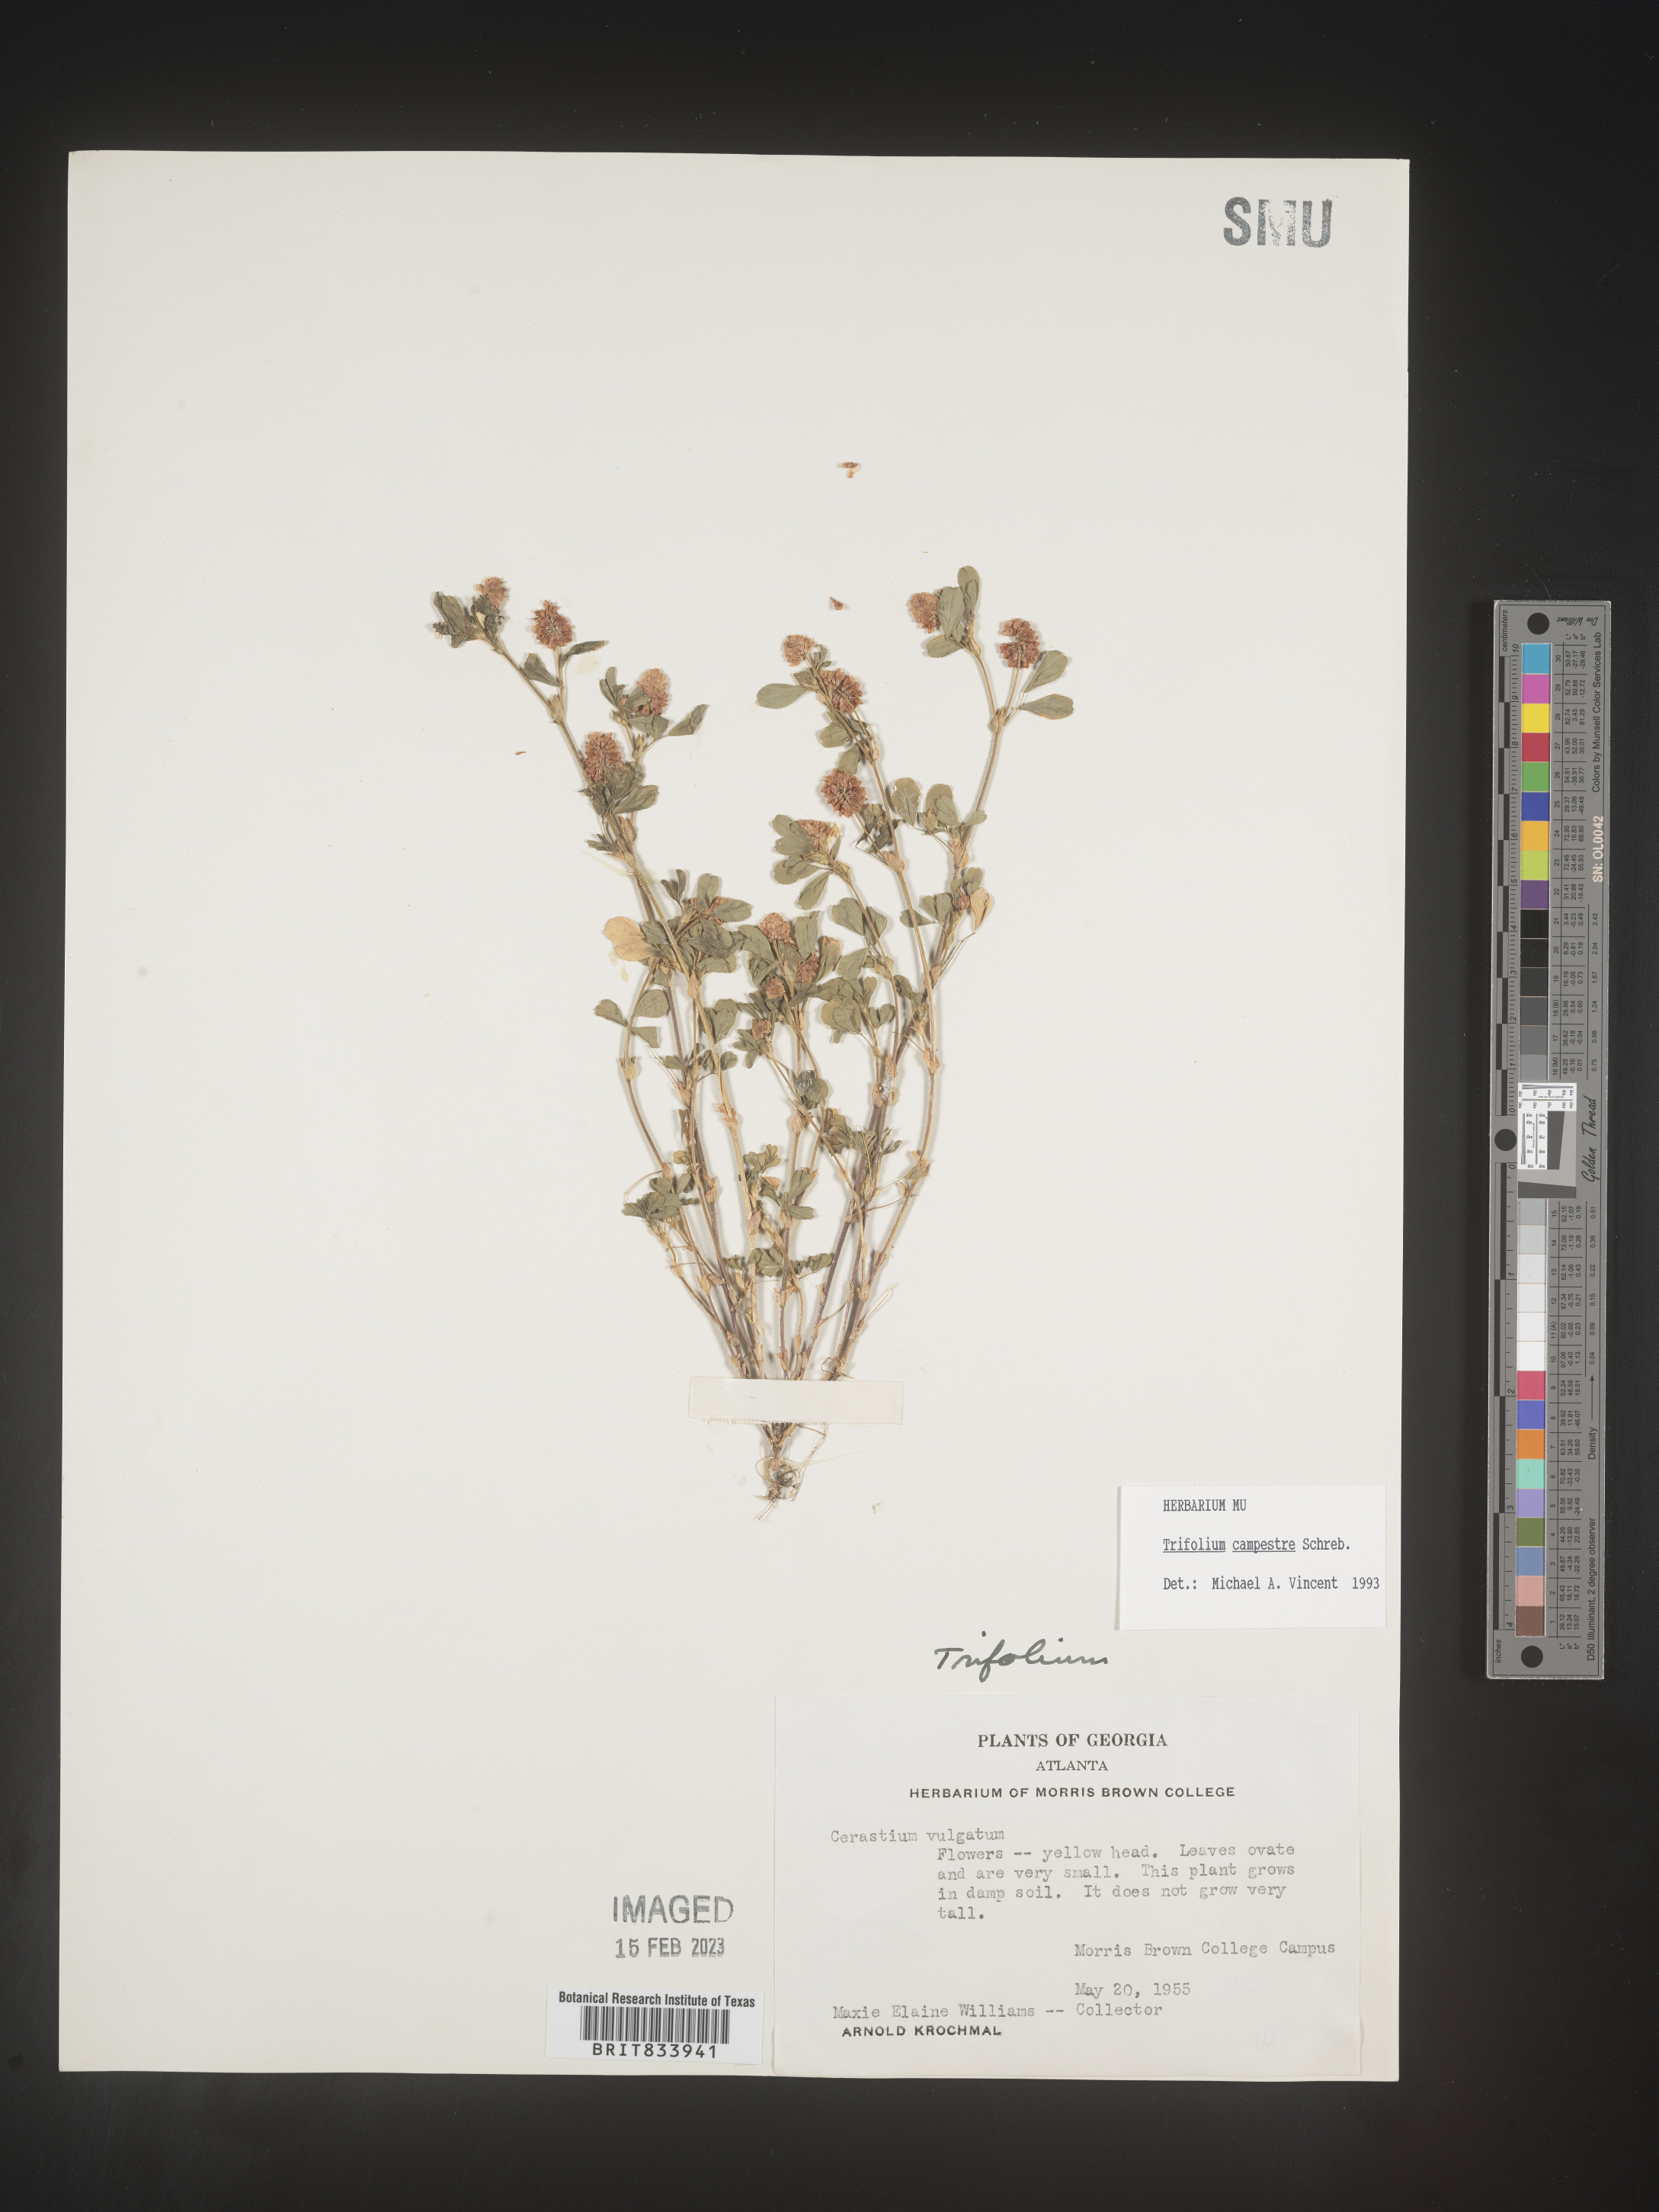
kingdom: Plantae
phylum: Tracheophyta
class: Magnoliopsida
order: Fabales
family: Fabaceae
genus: Trifolium
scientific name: Trifolium campestre
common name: Field clover
